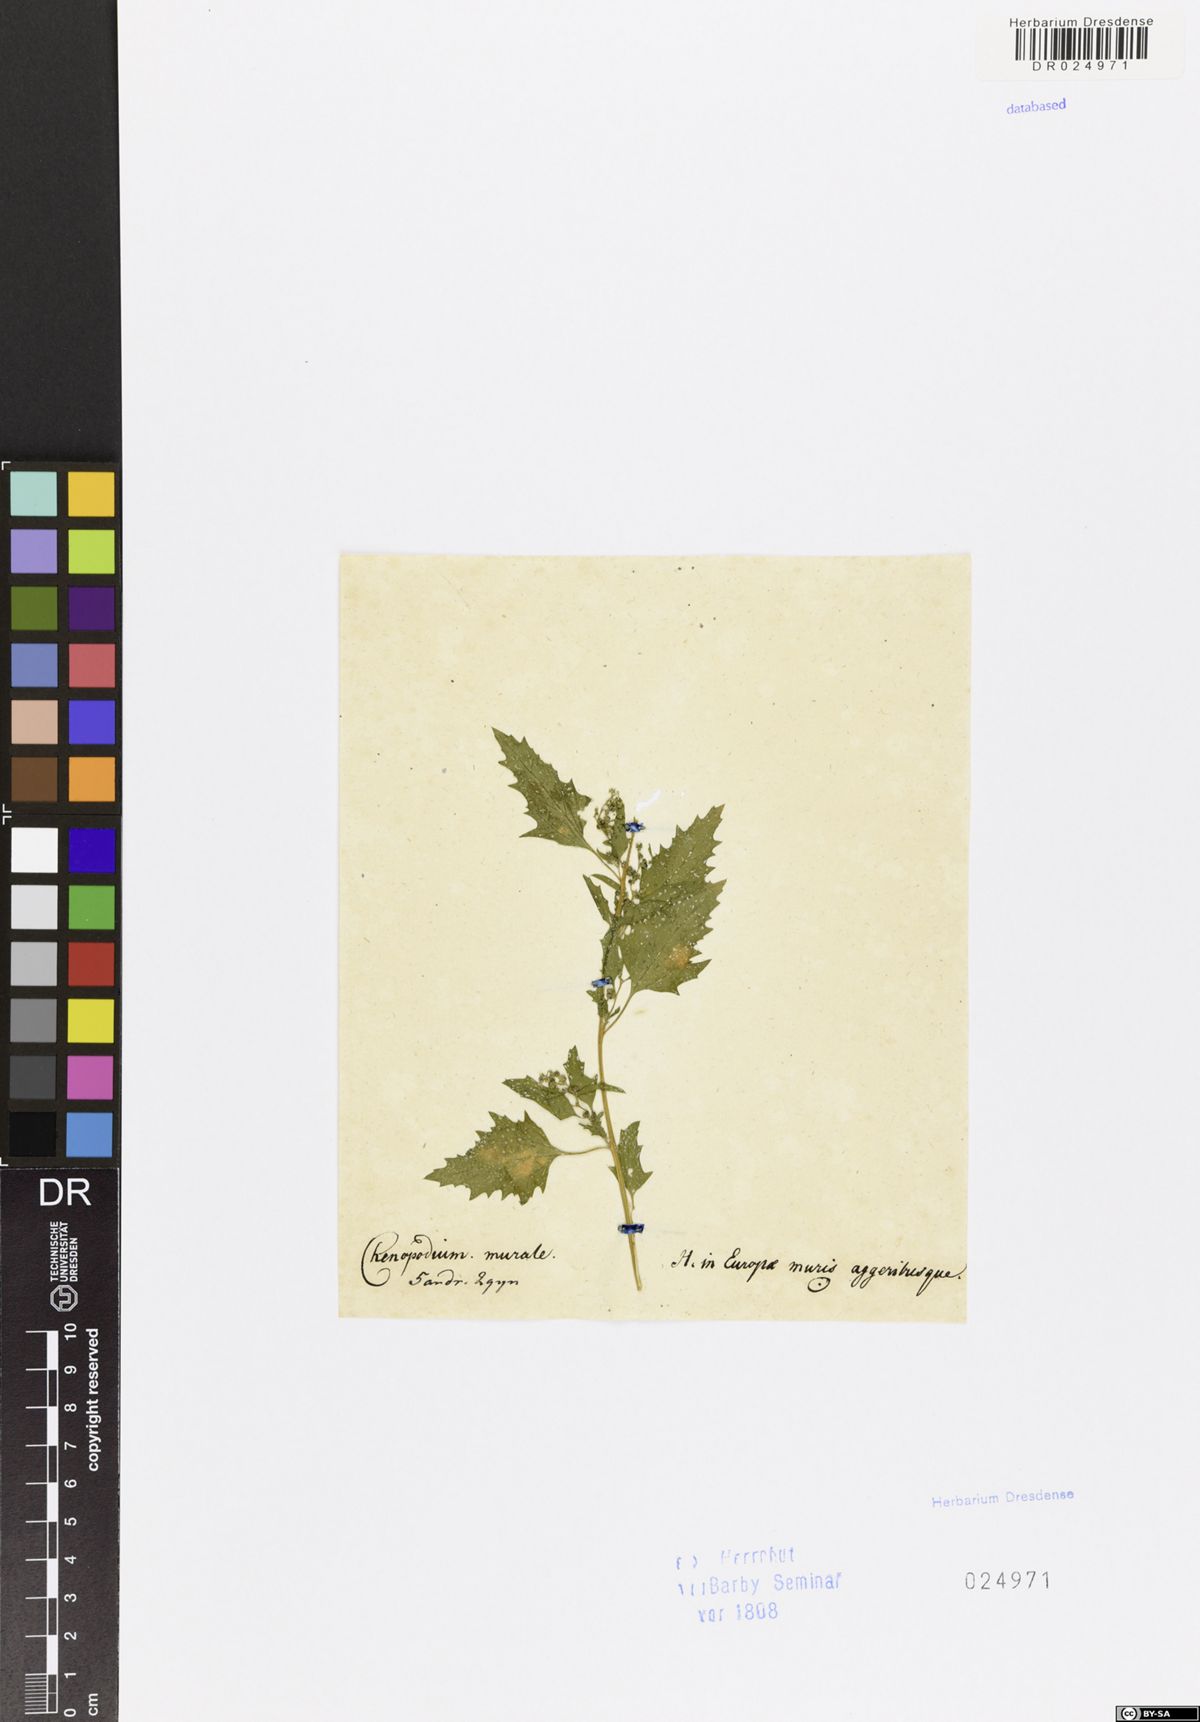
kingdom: Plantae
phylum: Tracheophyta
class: Magnoliopsida
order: Caryophyllales
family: Amaranthaceae
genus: Chenopodiastrum
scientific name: Chenopodiastrum murale
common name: Sowbane
